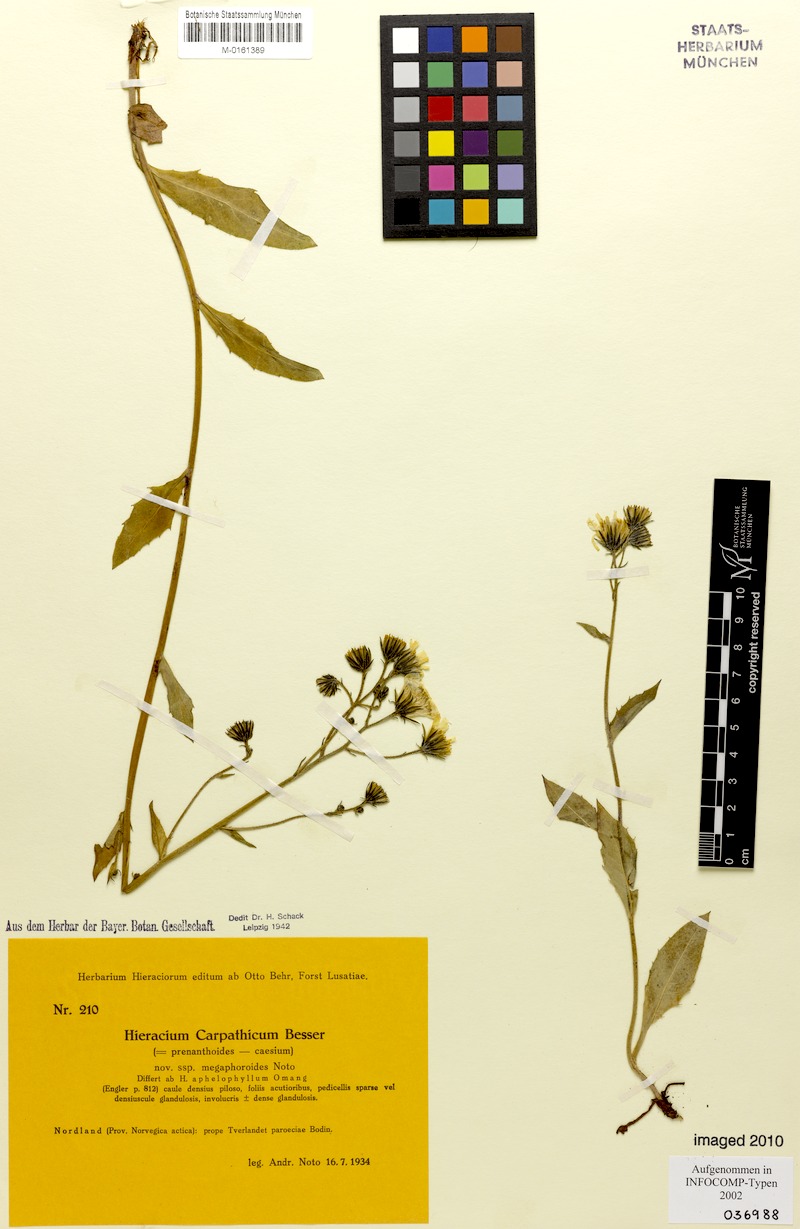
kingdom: Plantae
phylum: Tracheophyta
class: Magnoliopsida
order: Asterales
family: Asteraceae
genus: Hieracium
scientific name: Hieracium carpathicum
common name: Perth hawkweed
